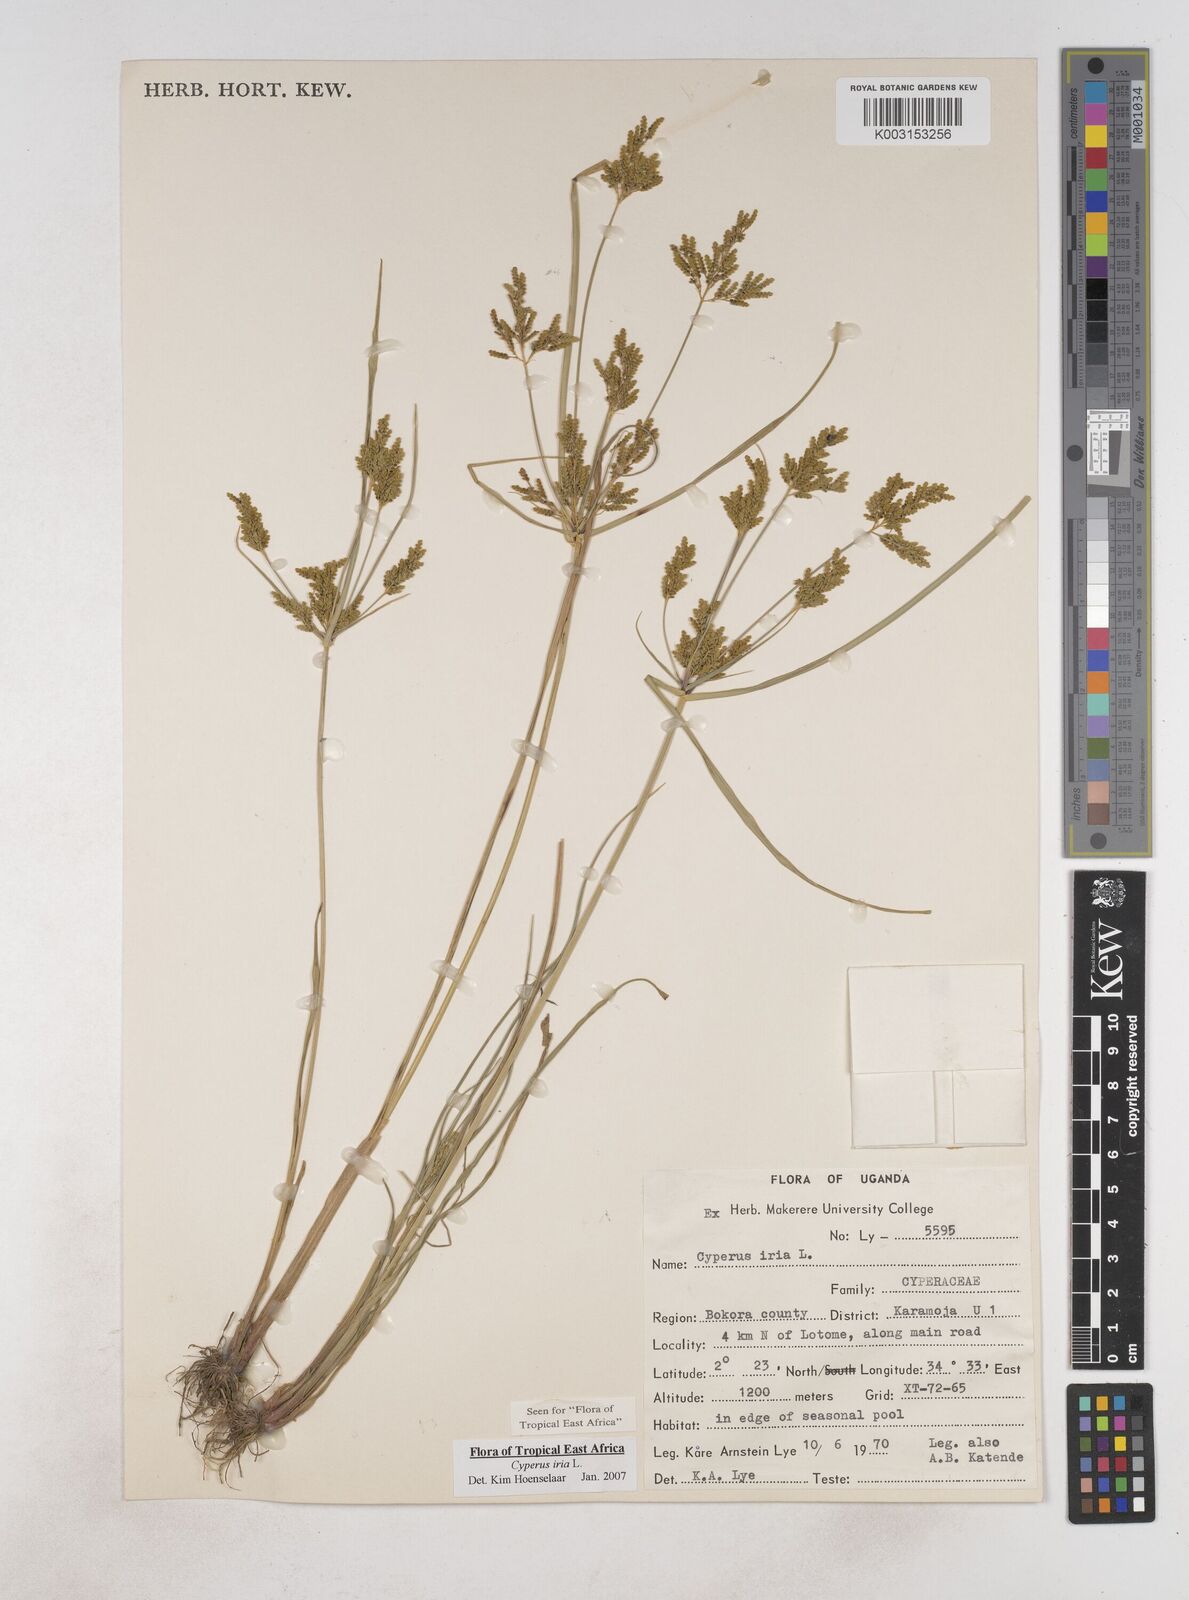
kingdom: Plantae
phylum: Tracheophyta
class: Liliopsida
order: Poales
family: Cyperaceae
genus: Cyperus
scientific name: Cyperus iria
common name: Ricefield flatsedge
